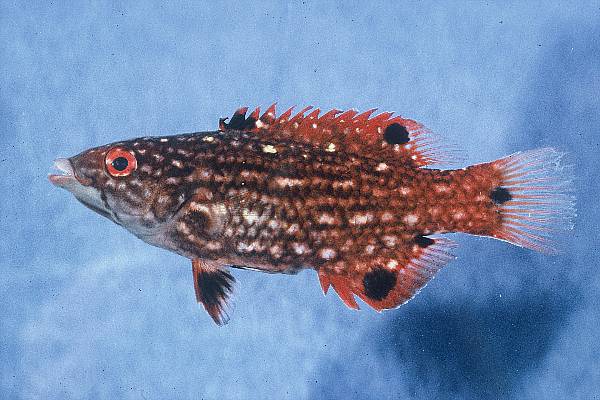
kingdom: Animalia
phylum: Chordata
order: Perciformes
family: Labridae
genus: Bodianus
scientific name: Bodianus diana
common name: Diana's hogfish
